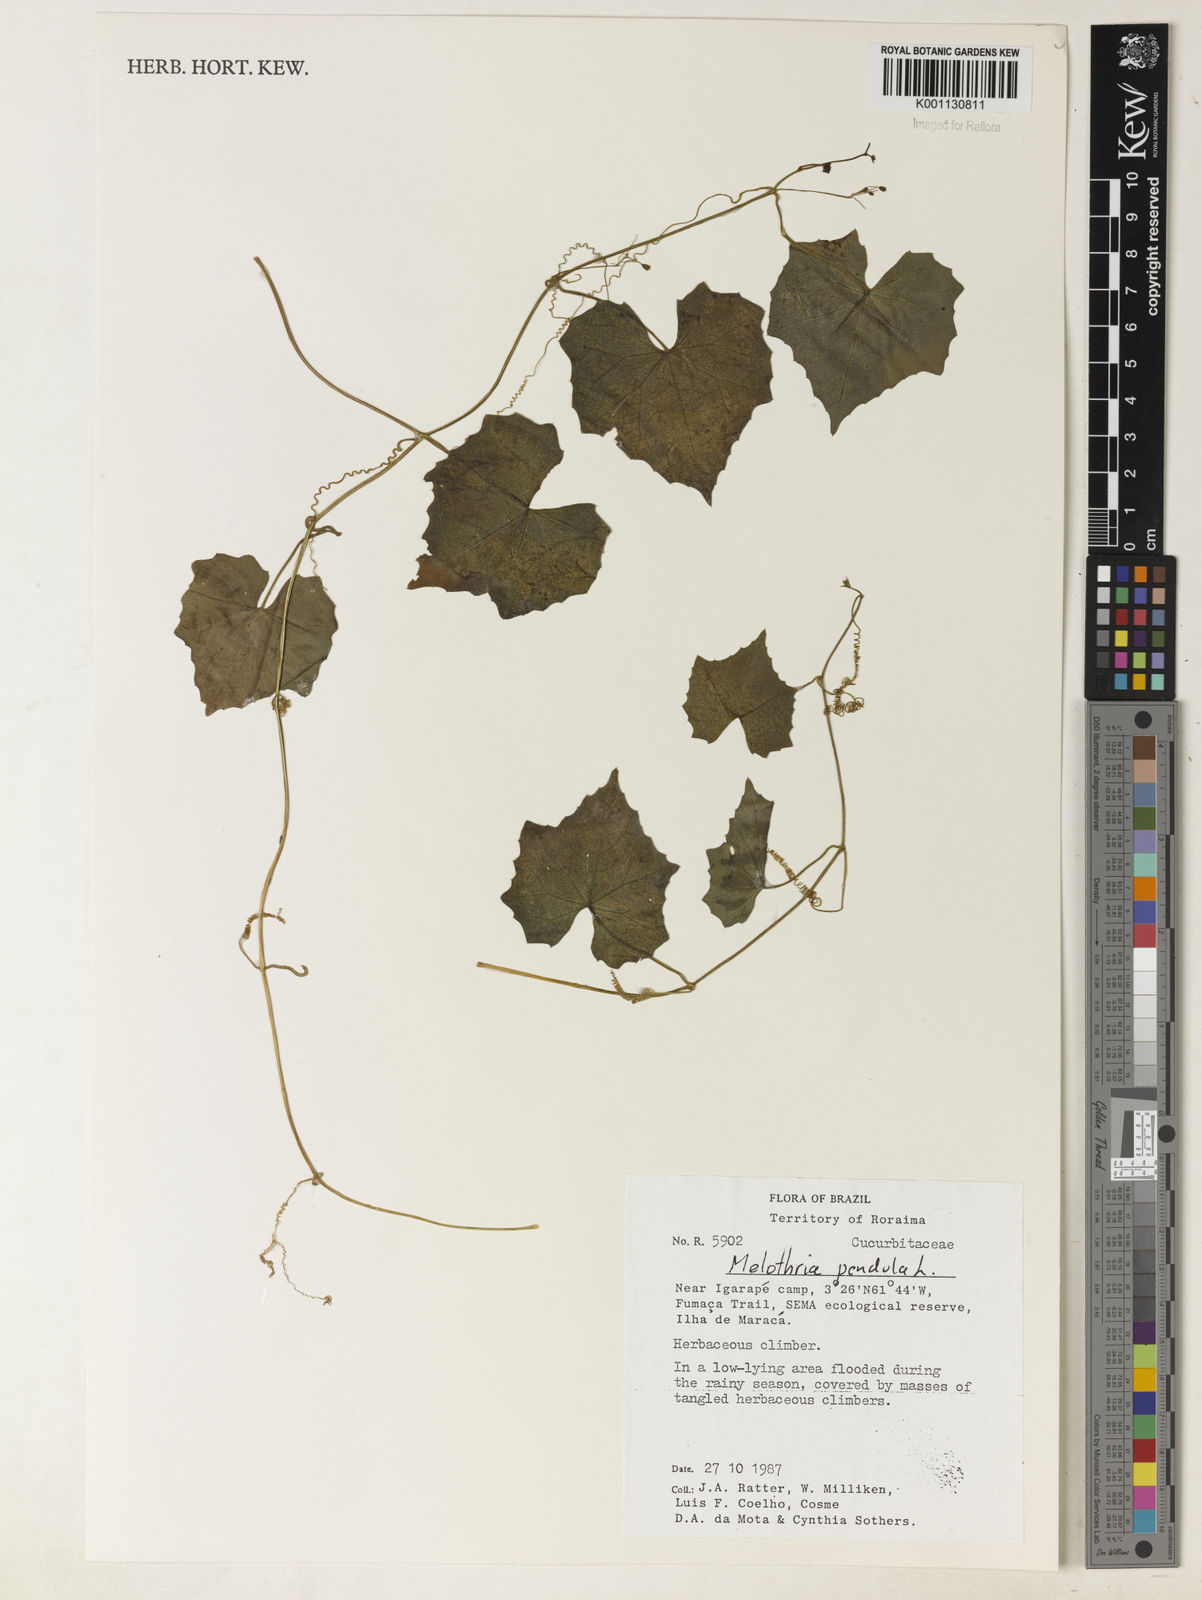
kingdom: Plantae
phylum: Tracheophyta
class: Magnoliopsida
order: Cucurbitales
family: Cucurbitaceae
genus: Melothria
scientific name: Melothria pendula
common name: Creeping-cucumber
